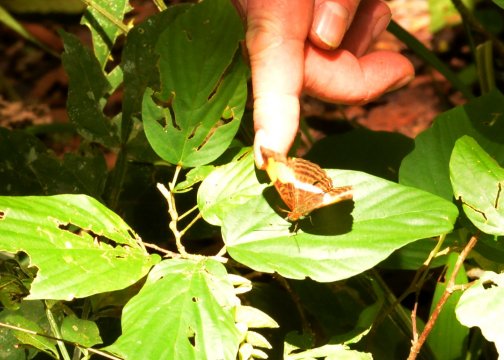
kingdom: Animalia
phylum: Arthropoda
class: Insecta
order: Lepidoptera
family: Nymphalidae
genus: Limenitis
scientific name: Limenitis serpa
